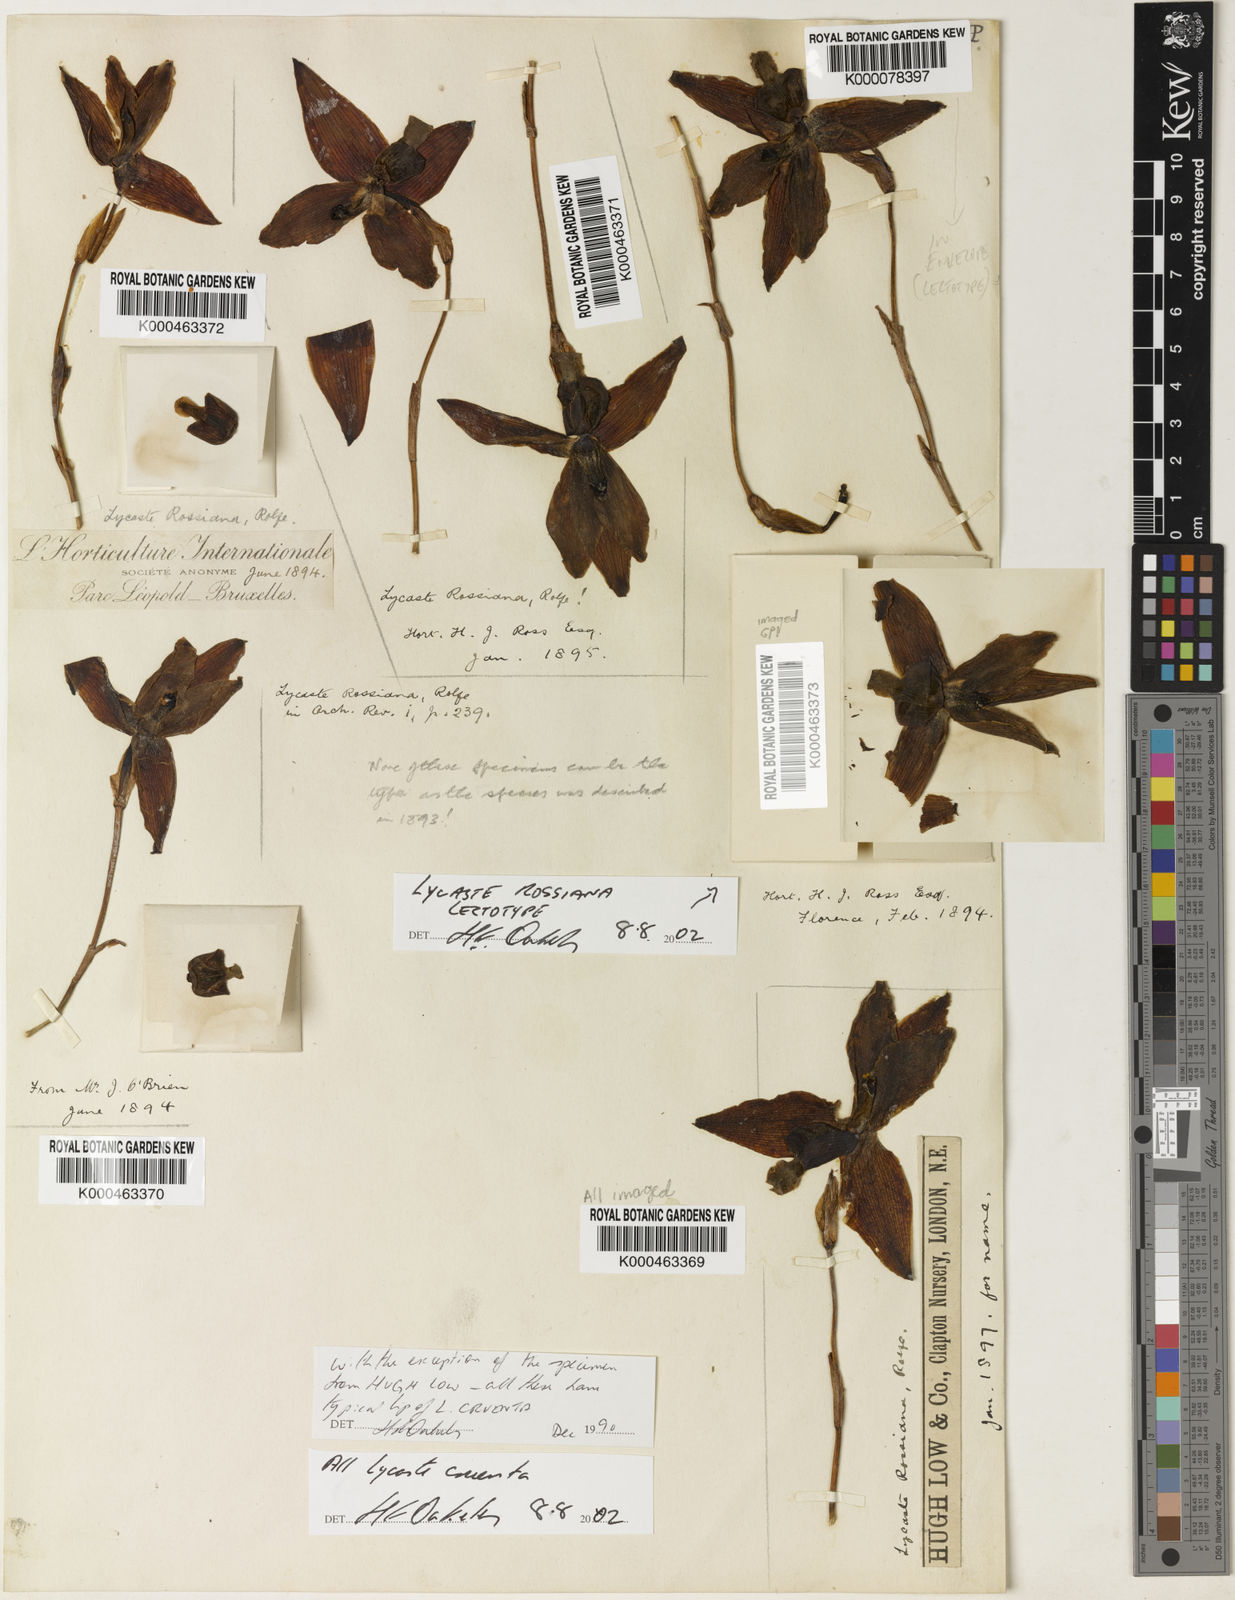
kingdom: Plantae
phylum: Tracheophyta
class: Liliopsida
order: Asparagales
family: Orchidaceae
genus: Lycaste
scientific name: Lycaste cruenta
